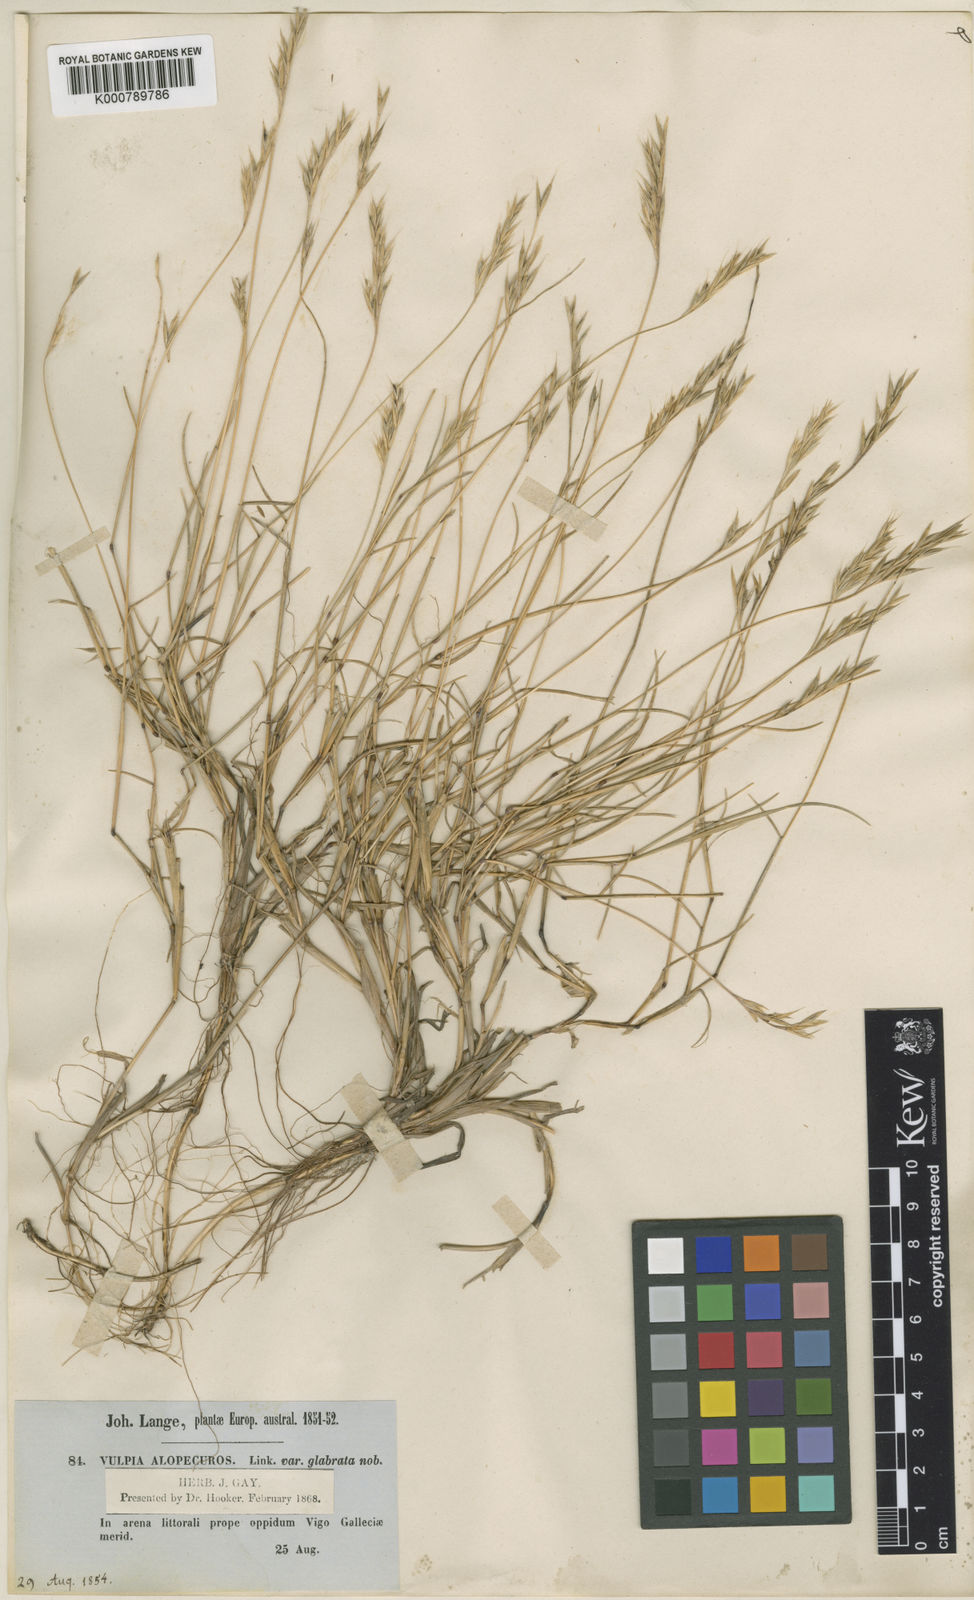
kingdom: Plantae
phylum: Tracheophyta
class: Liliopsida
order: Poales
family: Poaceae
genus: Festuca
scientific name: Festuca
